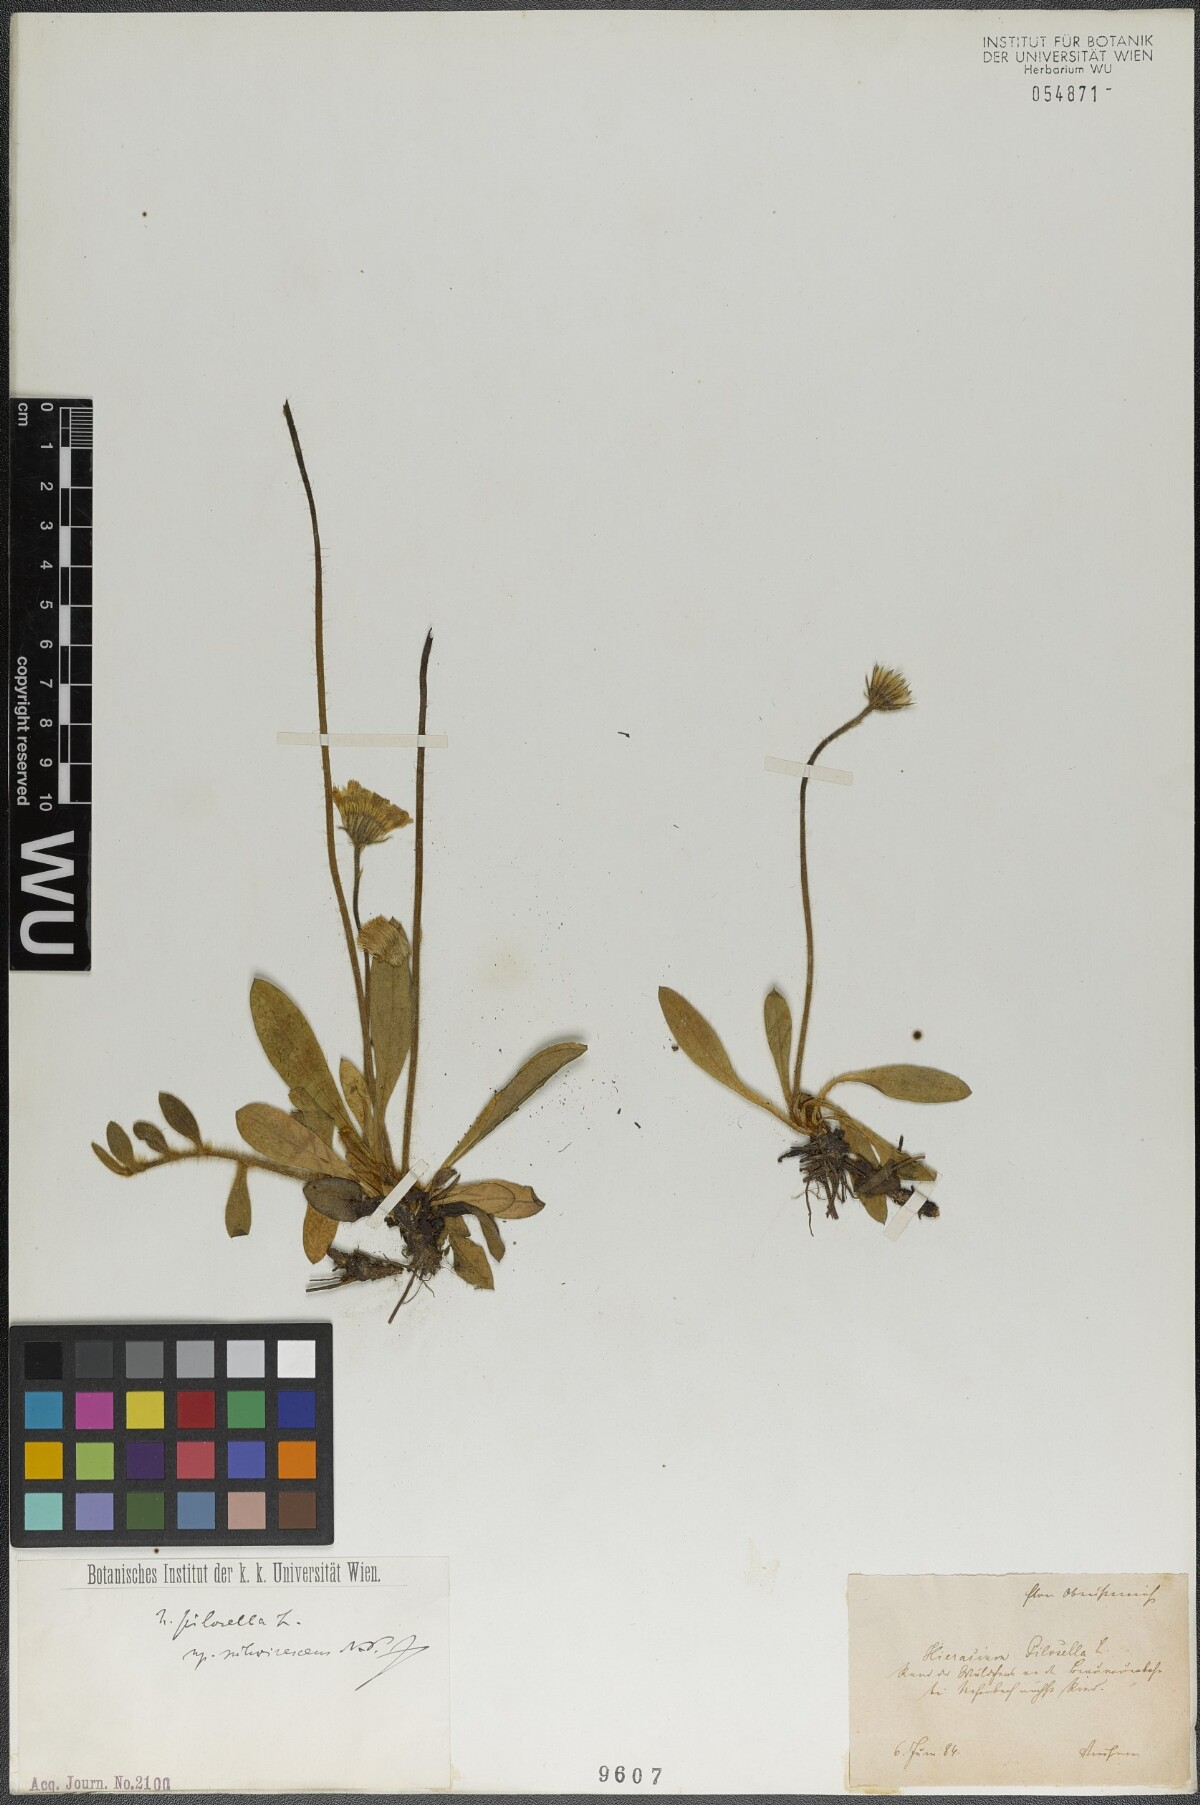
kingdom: Plantae
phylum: Tracheophyta
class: Magnoliopsida
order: Asterales
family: Asteraceae
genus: Pilosella
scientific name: Pilosella officinarum
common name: Mouse-ear hawkweed
